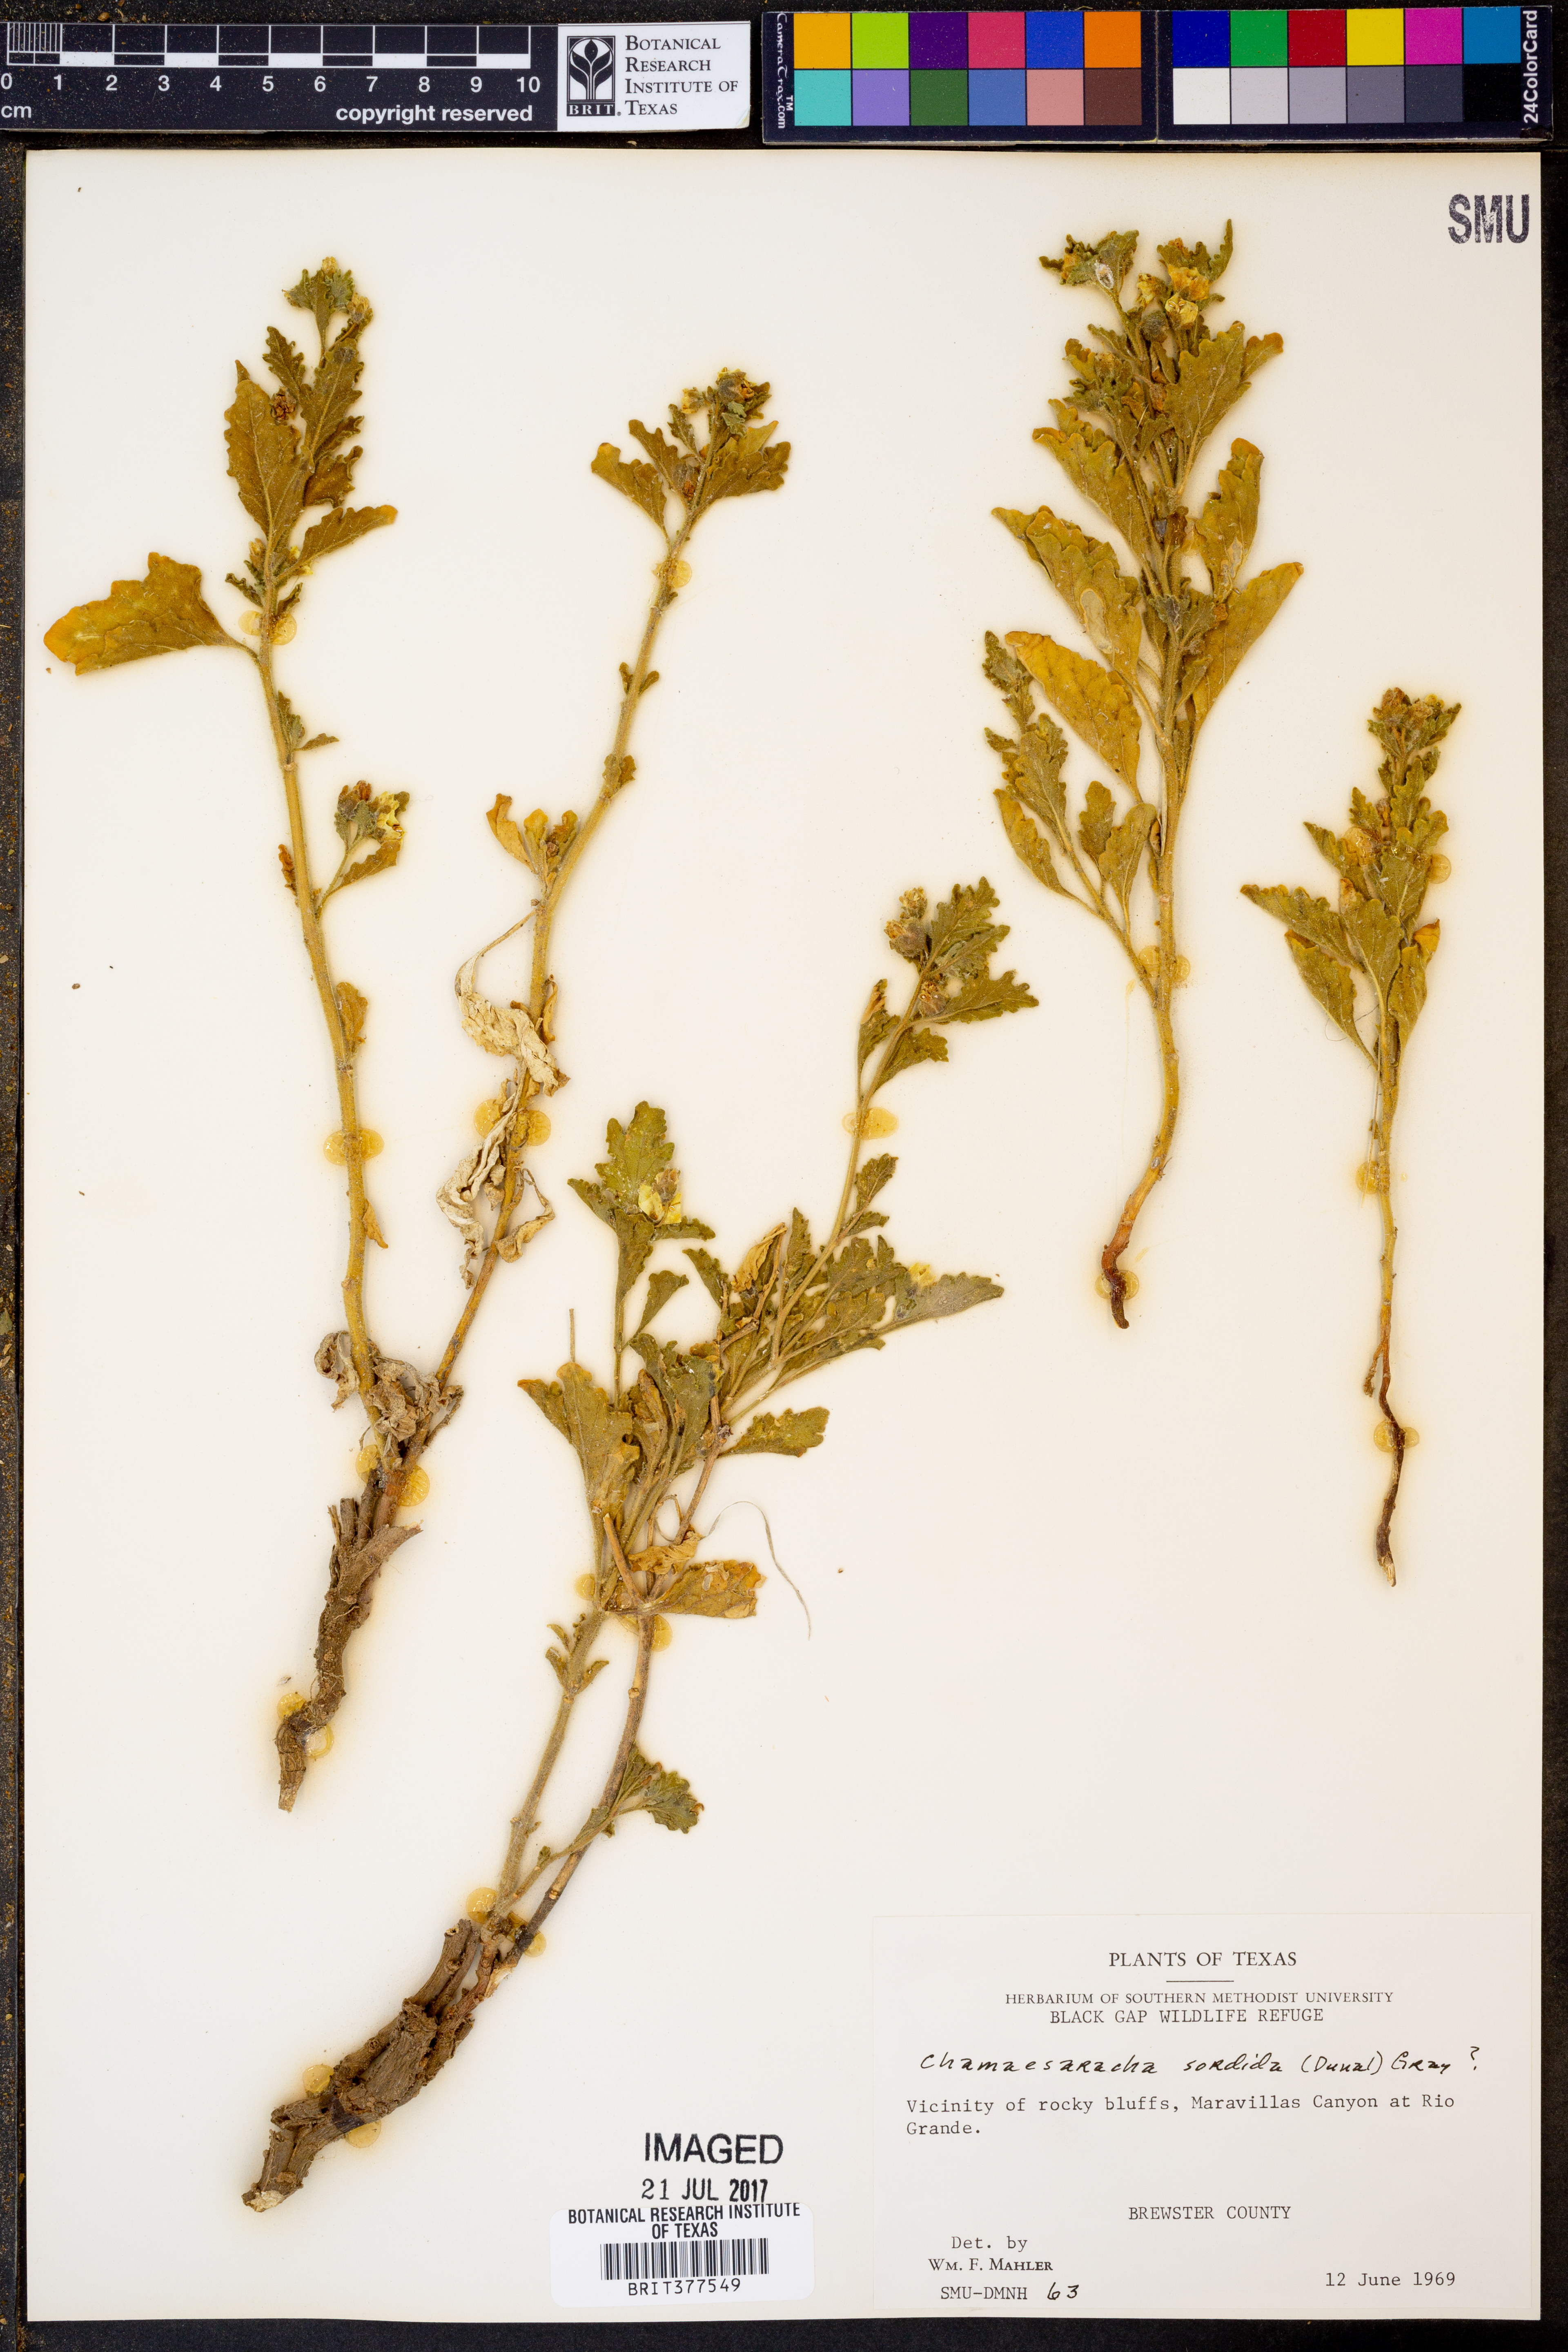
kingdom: Plantae
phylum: Tracheophyta
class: Magnoliopsida
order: Solanales
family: Solanaceae
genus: Chamaesaracha
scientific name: Chamaesaracha sordida
